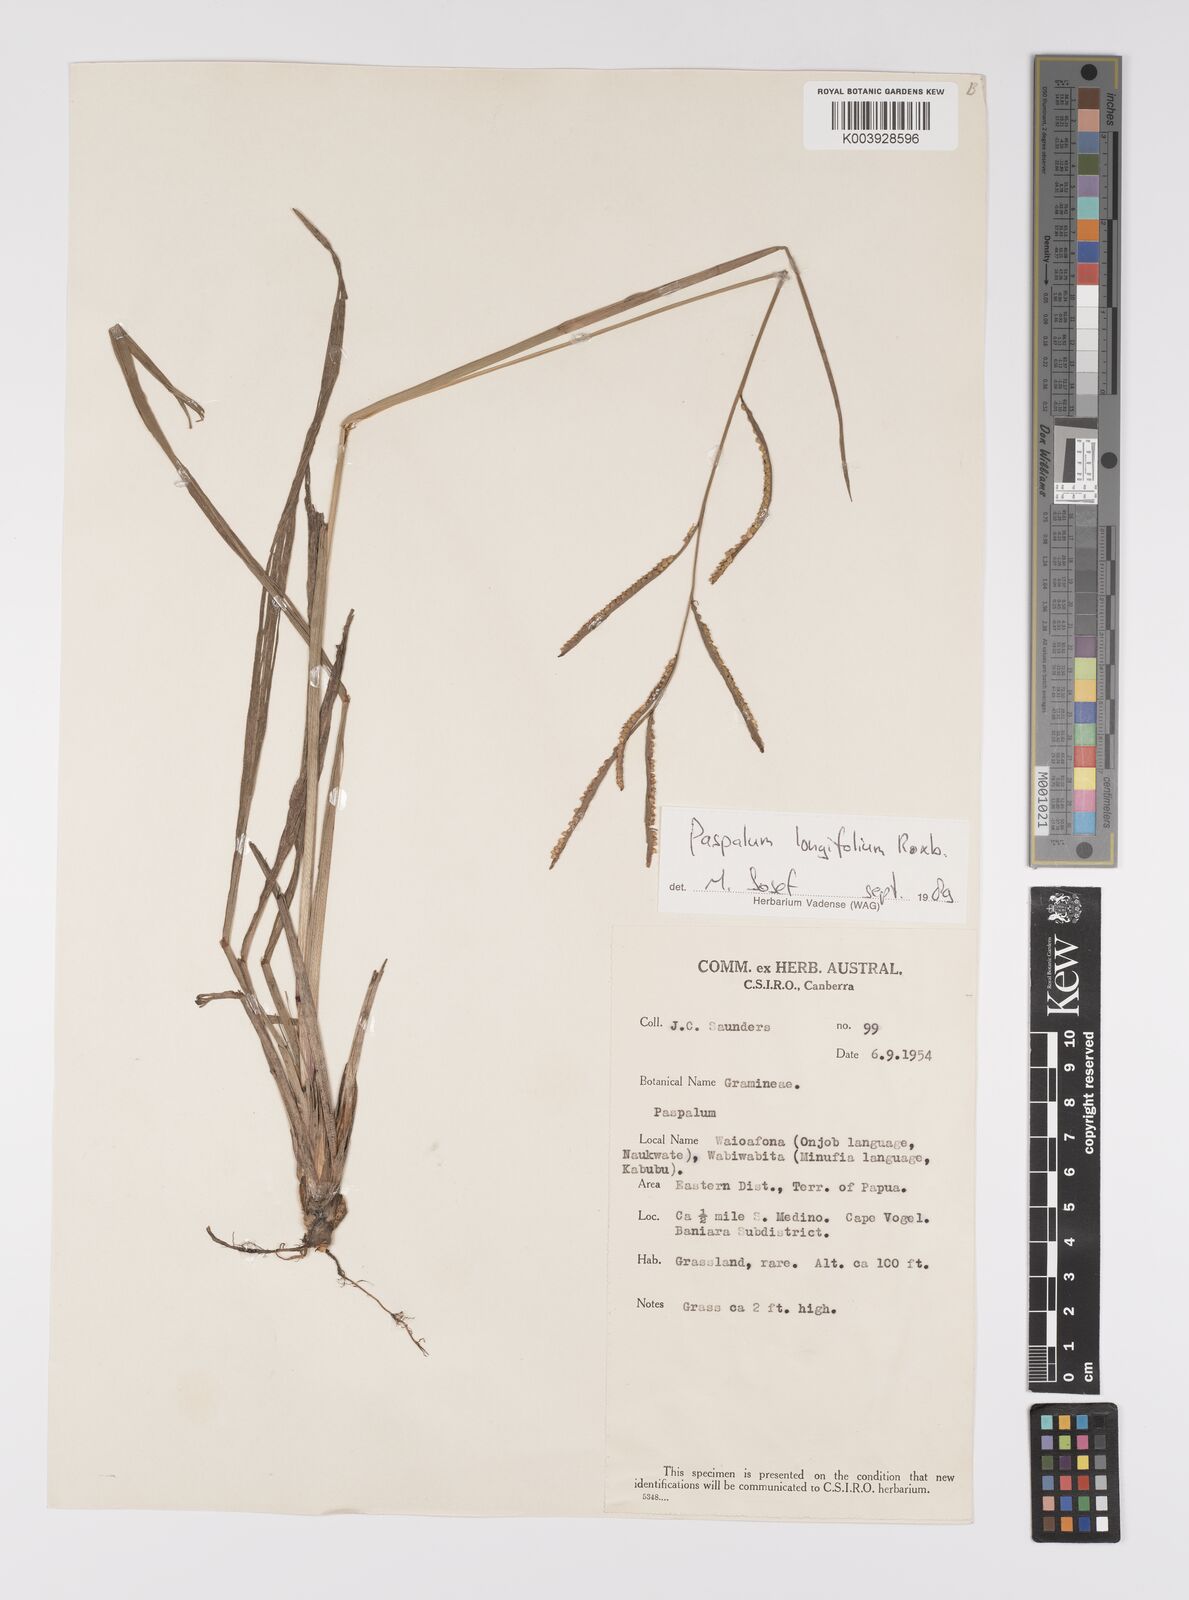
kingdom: Plantae
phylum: Tracheophyta
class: Liliopsida
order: Poales
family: Poaceae
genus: Paspalum
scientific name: Paspalum sumatrense
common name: Long-leaved paspalum
